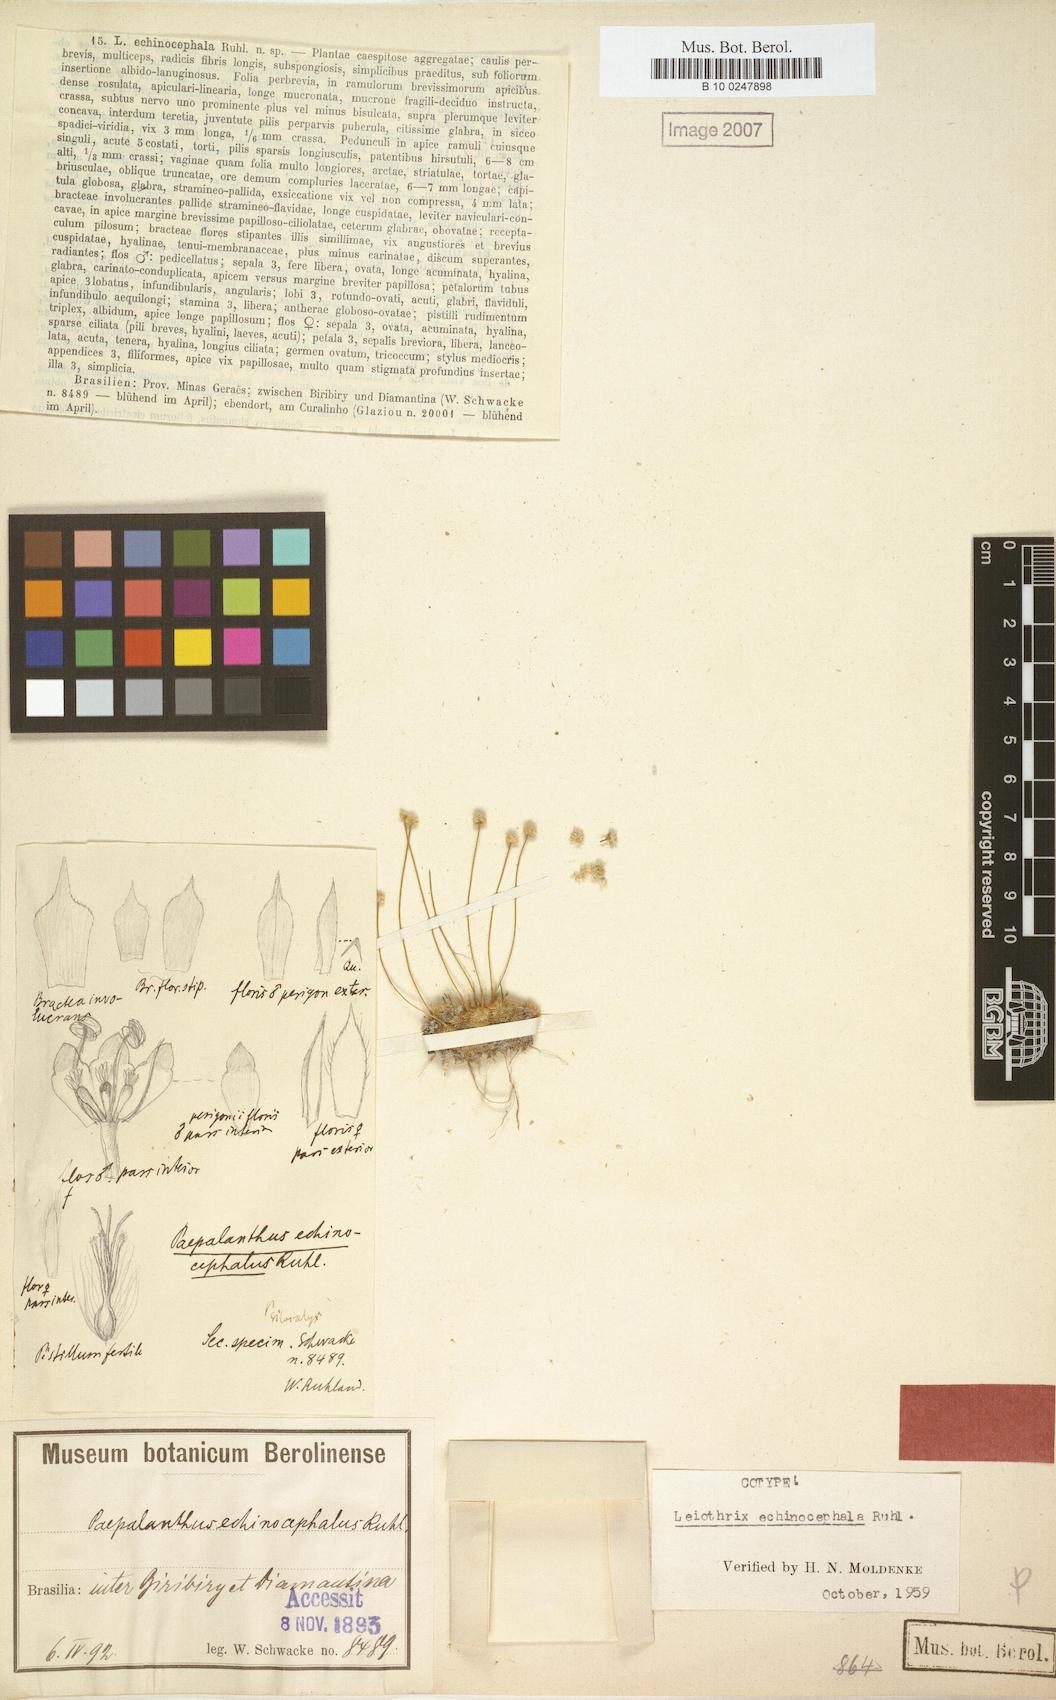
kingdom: Plantae
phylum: Tracheophyta
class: Liliopsida
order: Poales
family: Eriocaulaceae
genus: Leiothrix
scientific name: Leiothrix echinocephala
